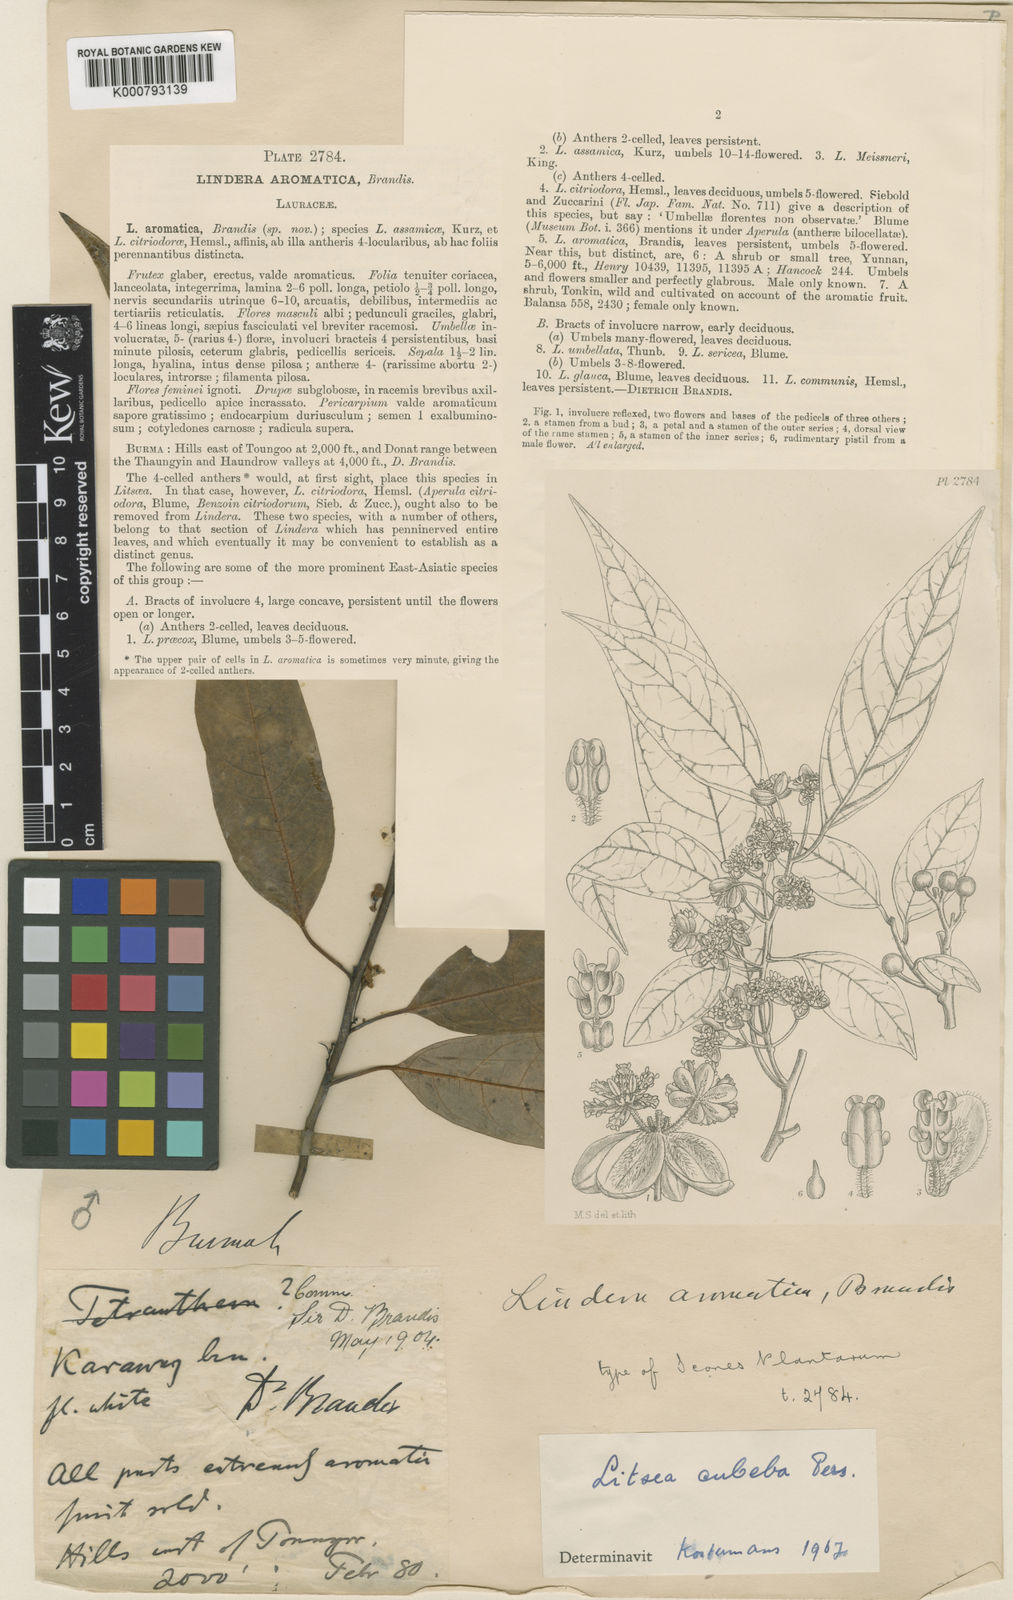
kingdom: Plantae
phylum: Tracheophyta
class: Magnoliopsida
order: Laurales
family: Lauraceae
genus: Litsea
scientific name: Litsea cubeba
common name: Mountain-pepper
